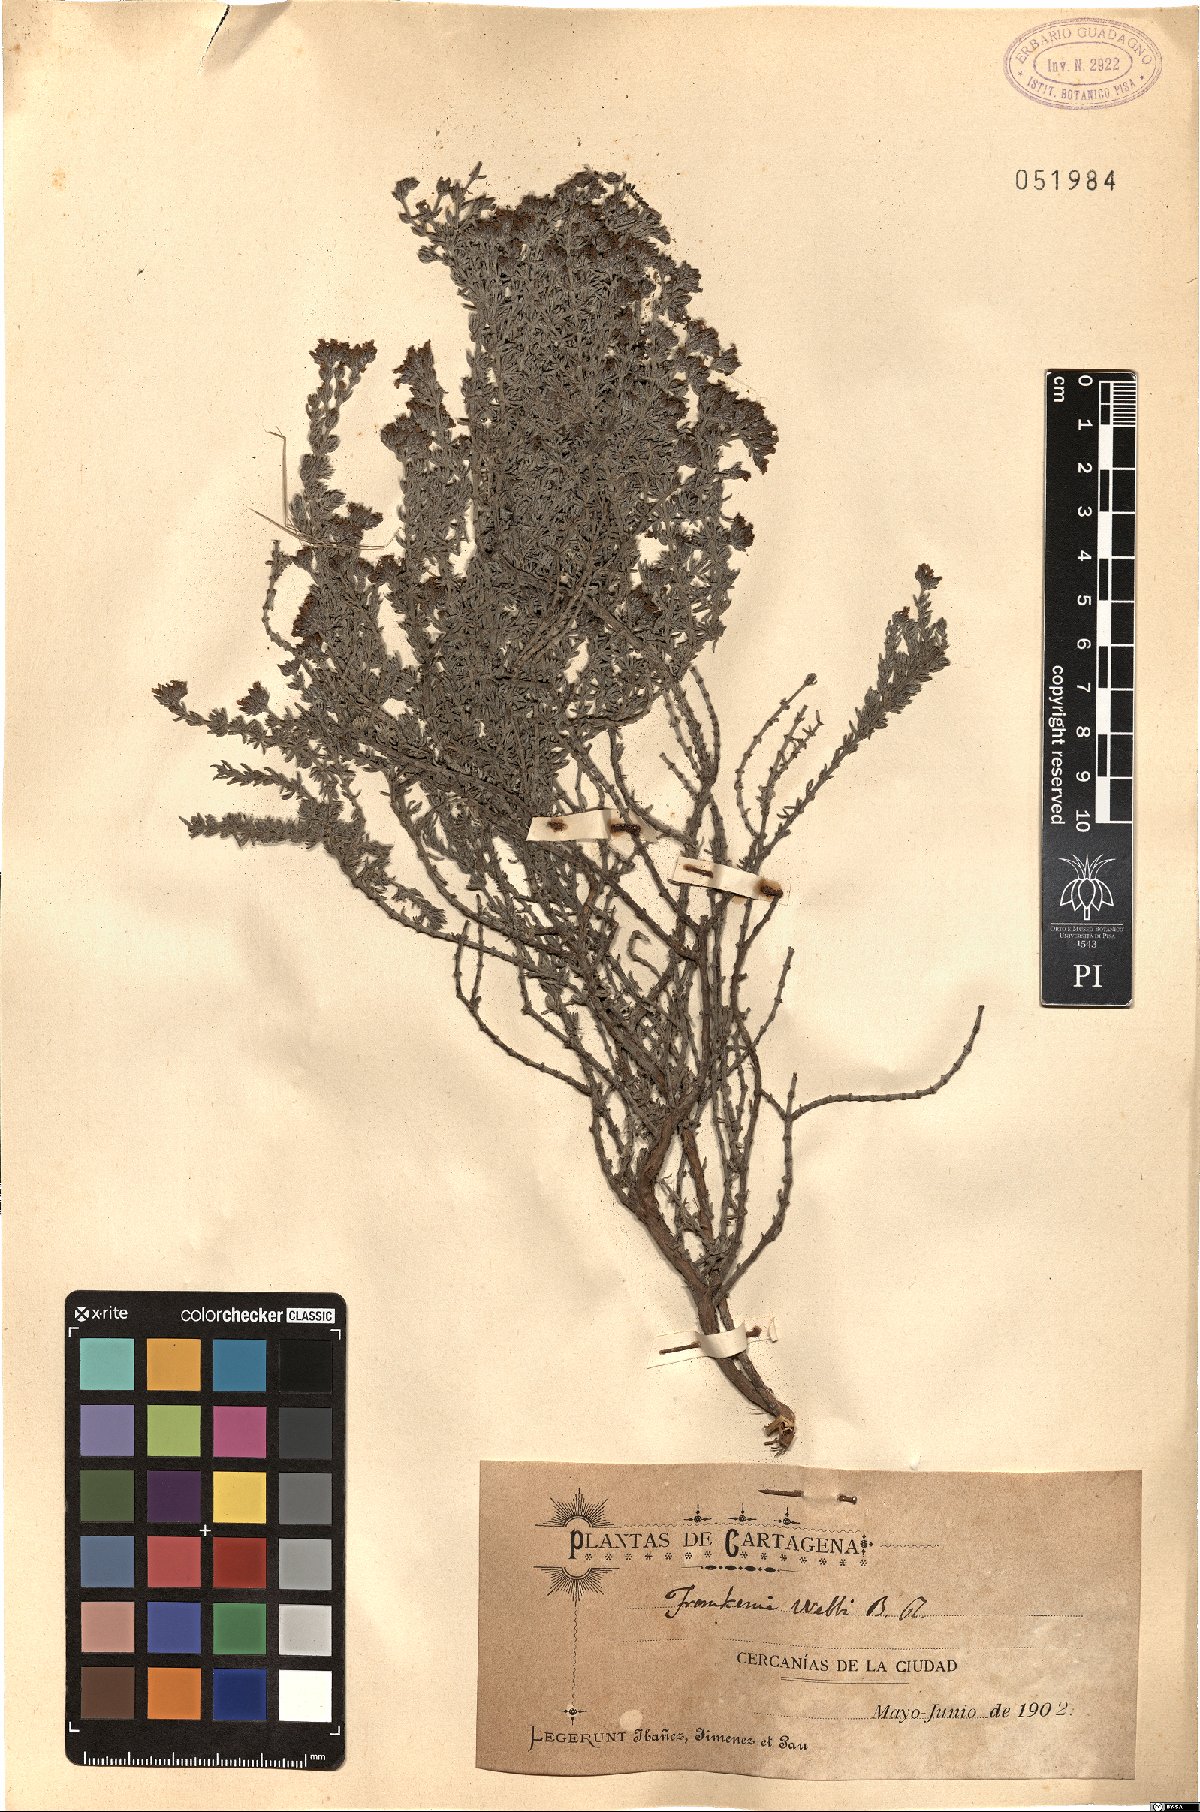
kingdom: Plantae
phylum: Tracheophyta
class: Magnoliopsida
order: Caryophyllales
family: Frankeniaceae
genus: Frankenia
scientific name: Frankenia corymbosa
